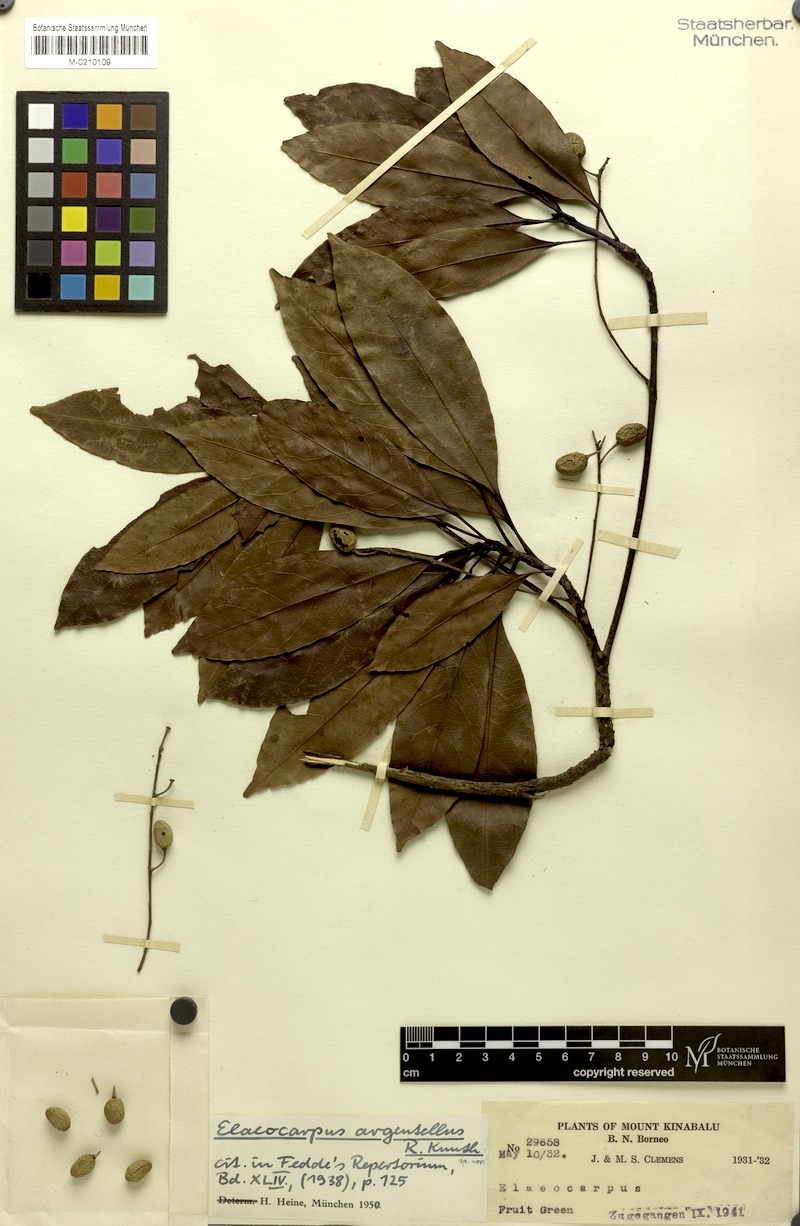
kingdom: Plantae
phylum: Tracheophyta
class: Magnoliopsida
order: Oxalidales
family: Elaeocarpaceae
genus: Elaeocarpus
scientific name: Elaeocarpus pedunculatus
